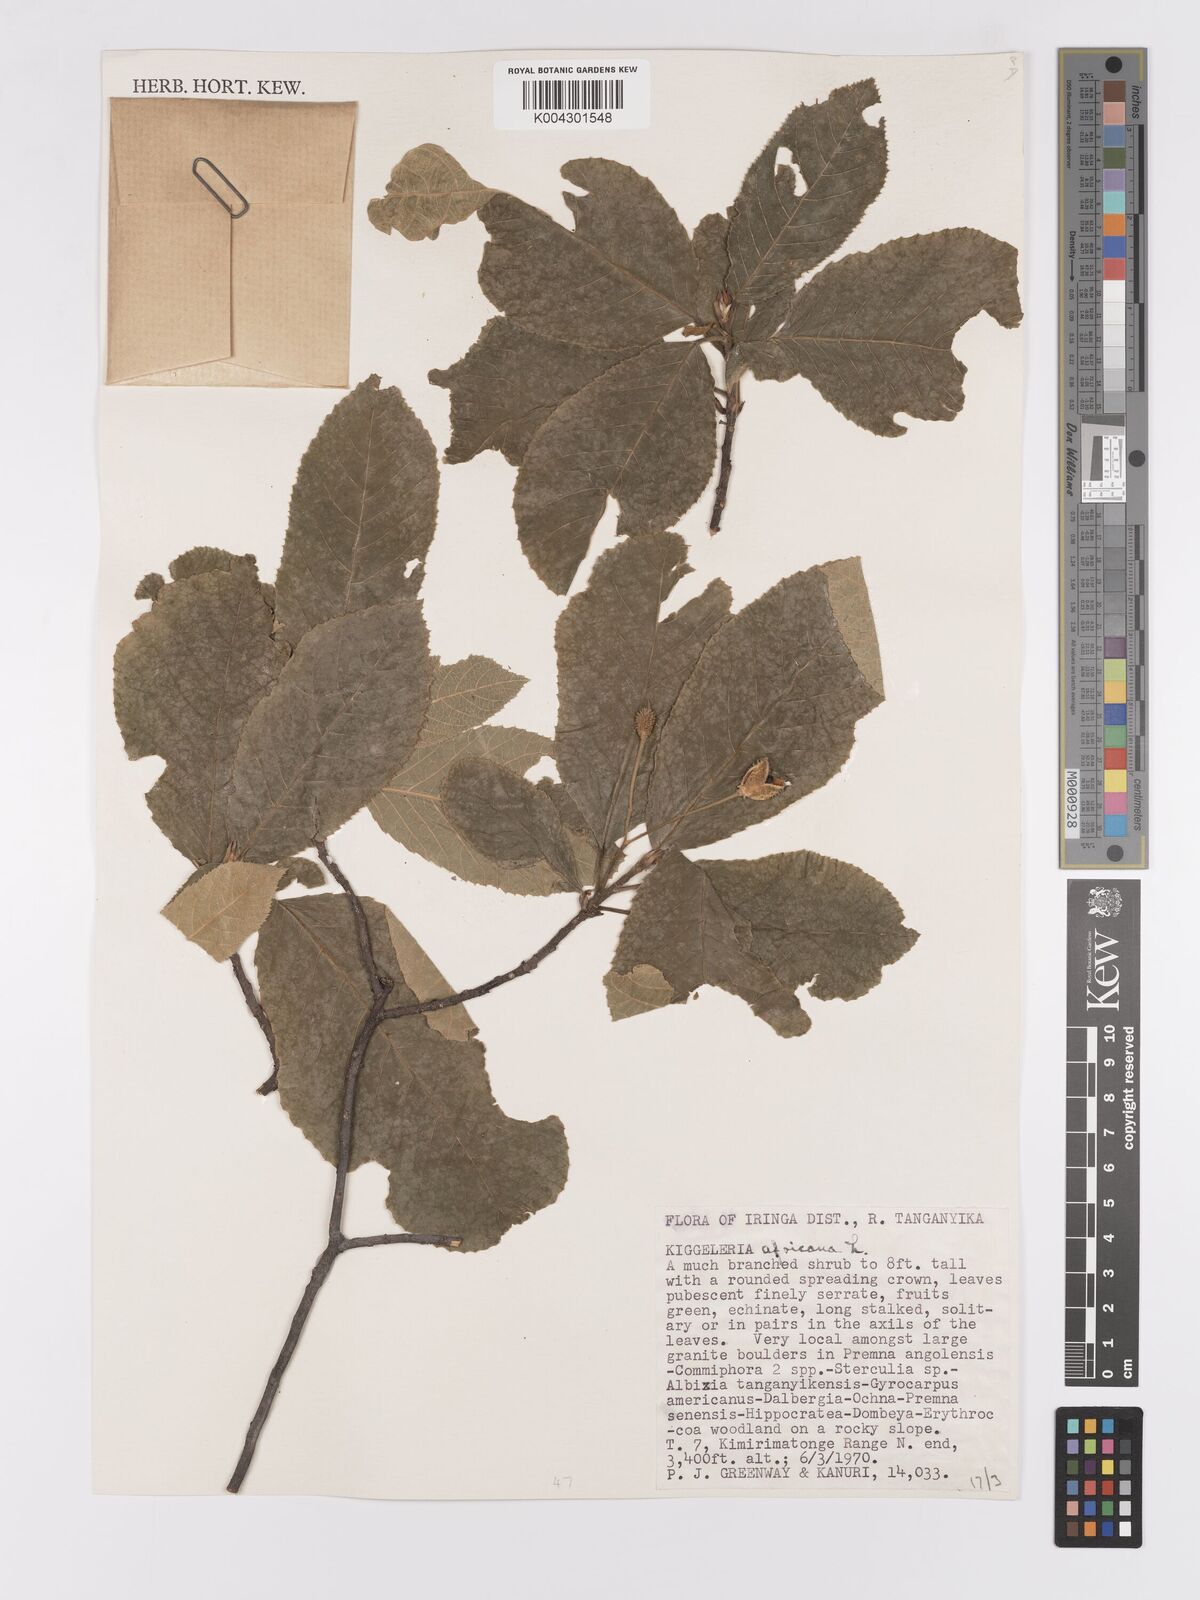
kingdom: Plantae
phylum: Tracheophyta
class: Magnoliopsida
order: Malpighiales
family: Achariaceae
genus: Kiggelaria
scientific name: Kiggelaria africana
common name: Wild peach
